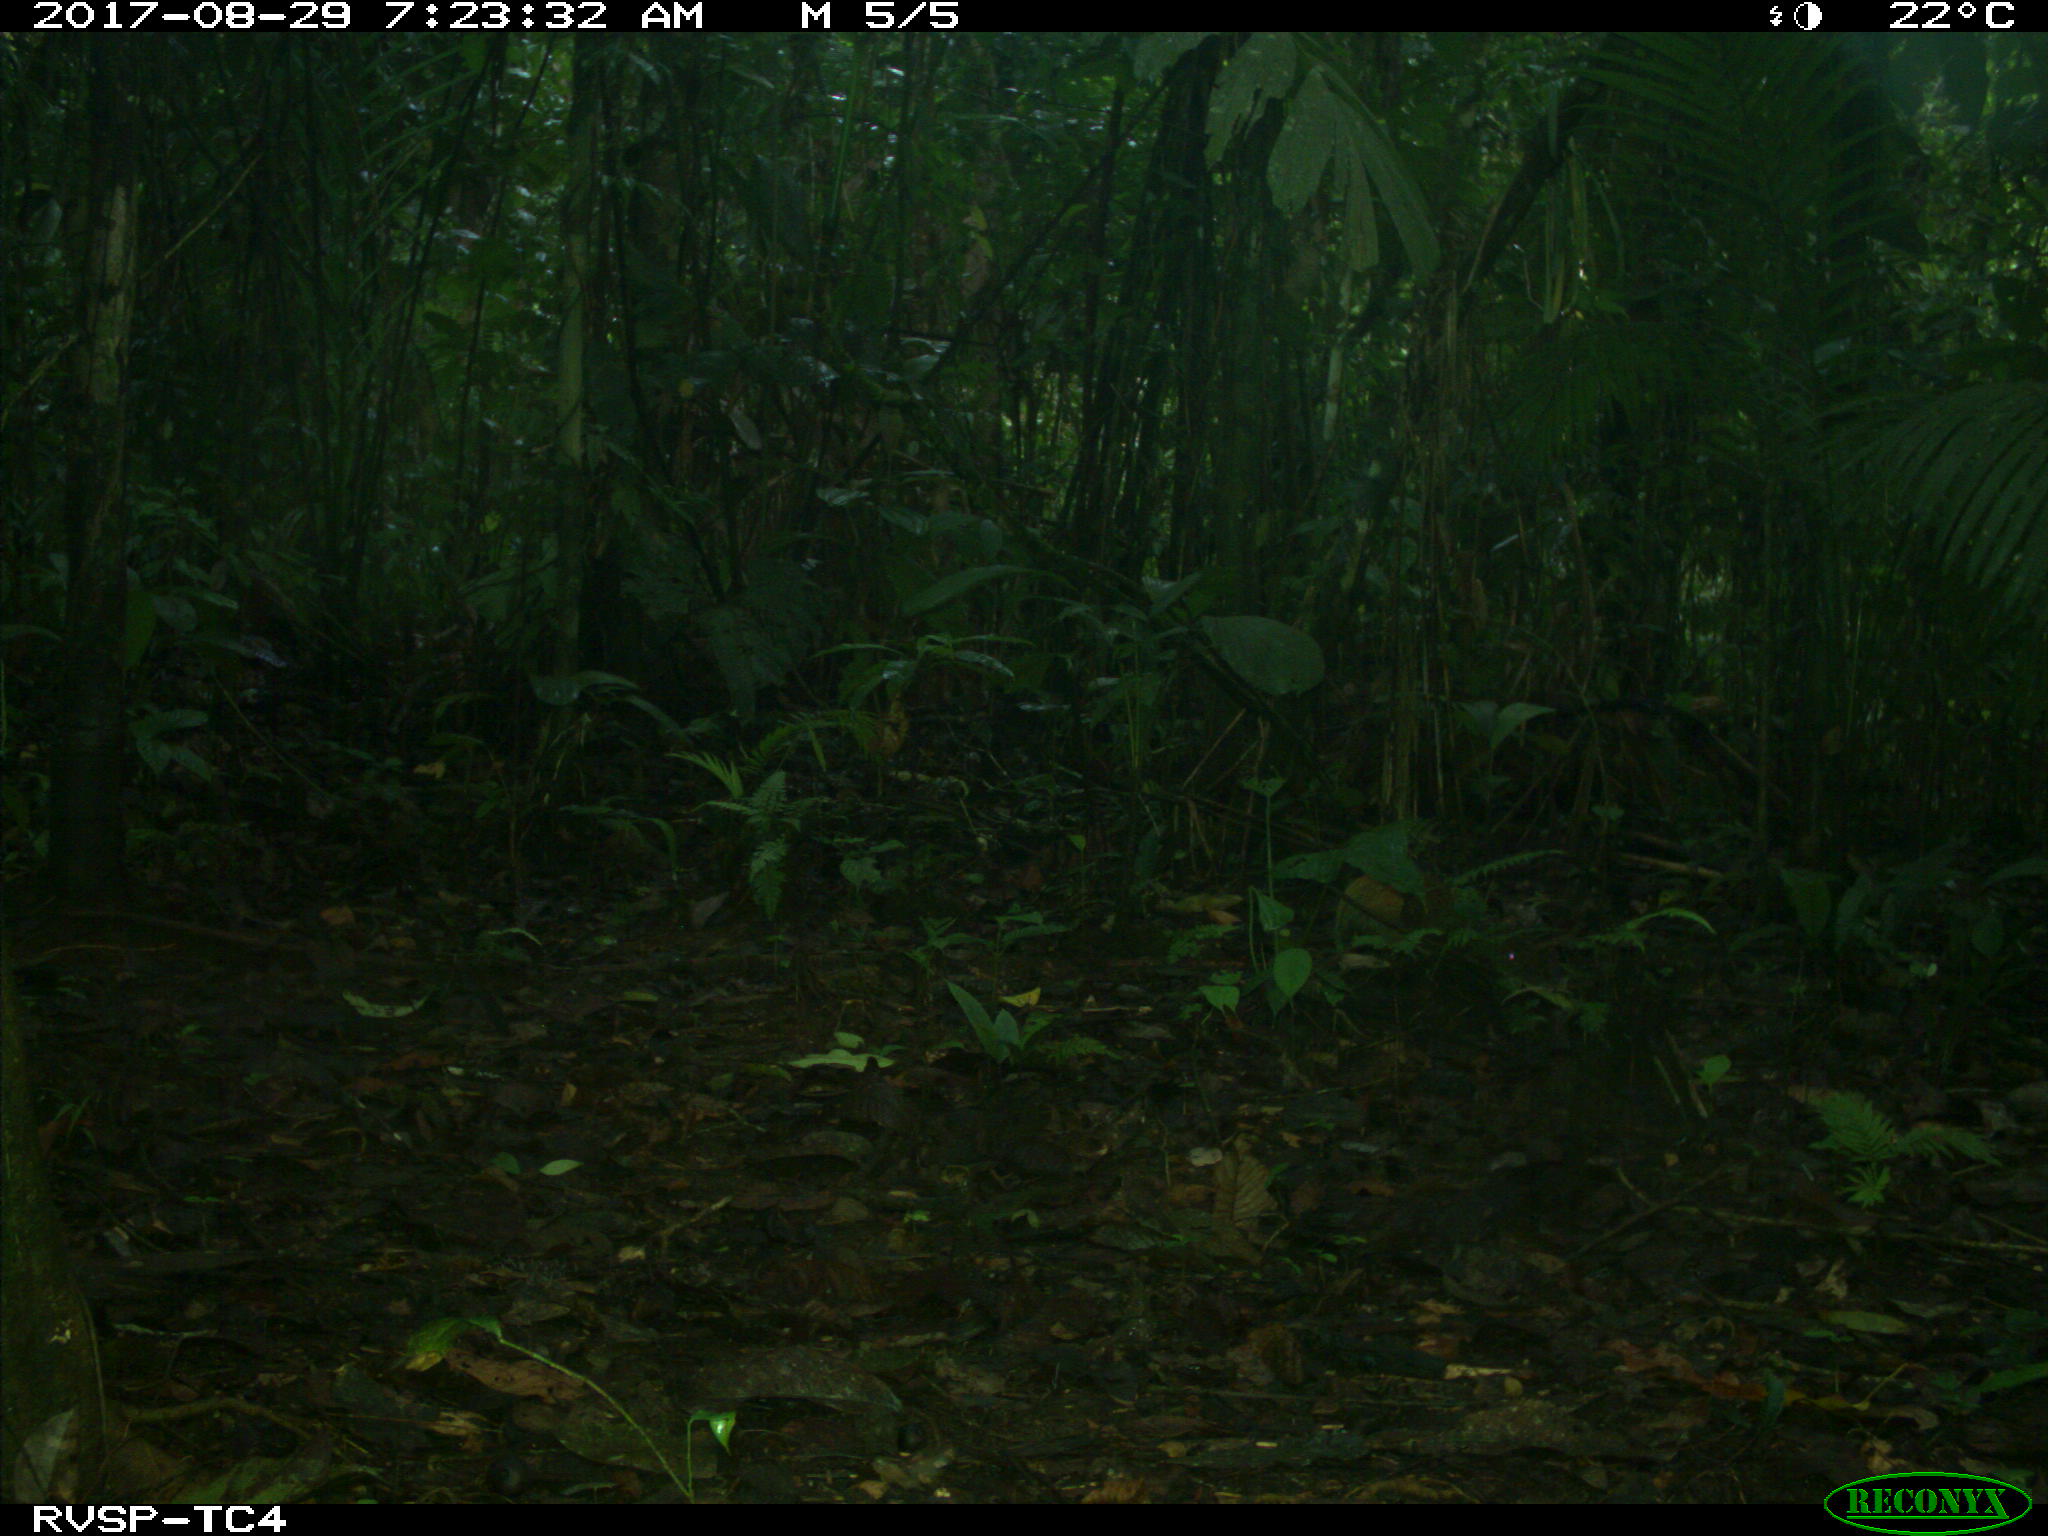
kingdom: Animalia
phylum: Chordata
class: Mammalia
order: Rodentia
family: Dasyproctidae
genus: Dasyprocta
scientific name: Dasyprocta punctata
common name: Central american agouti
